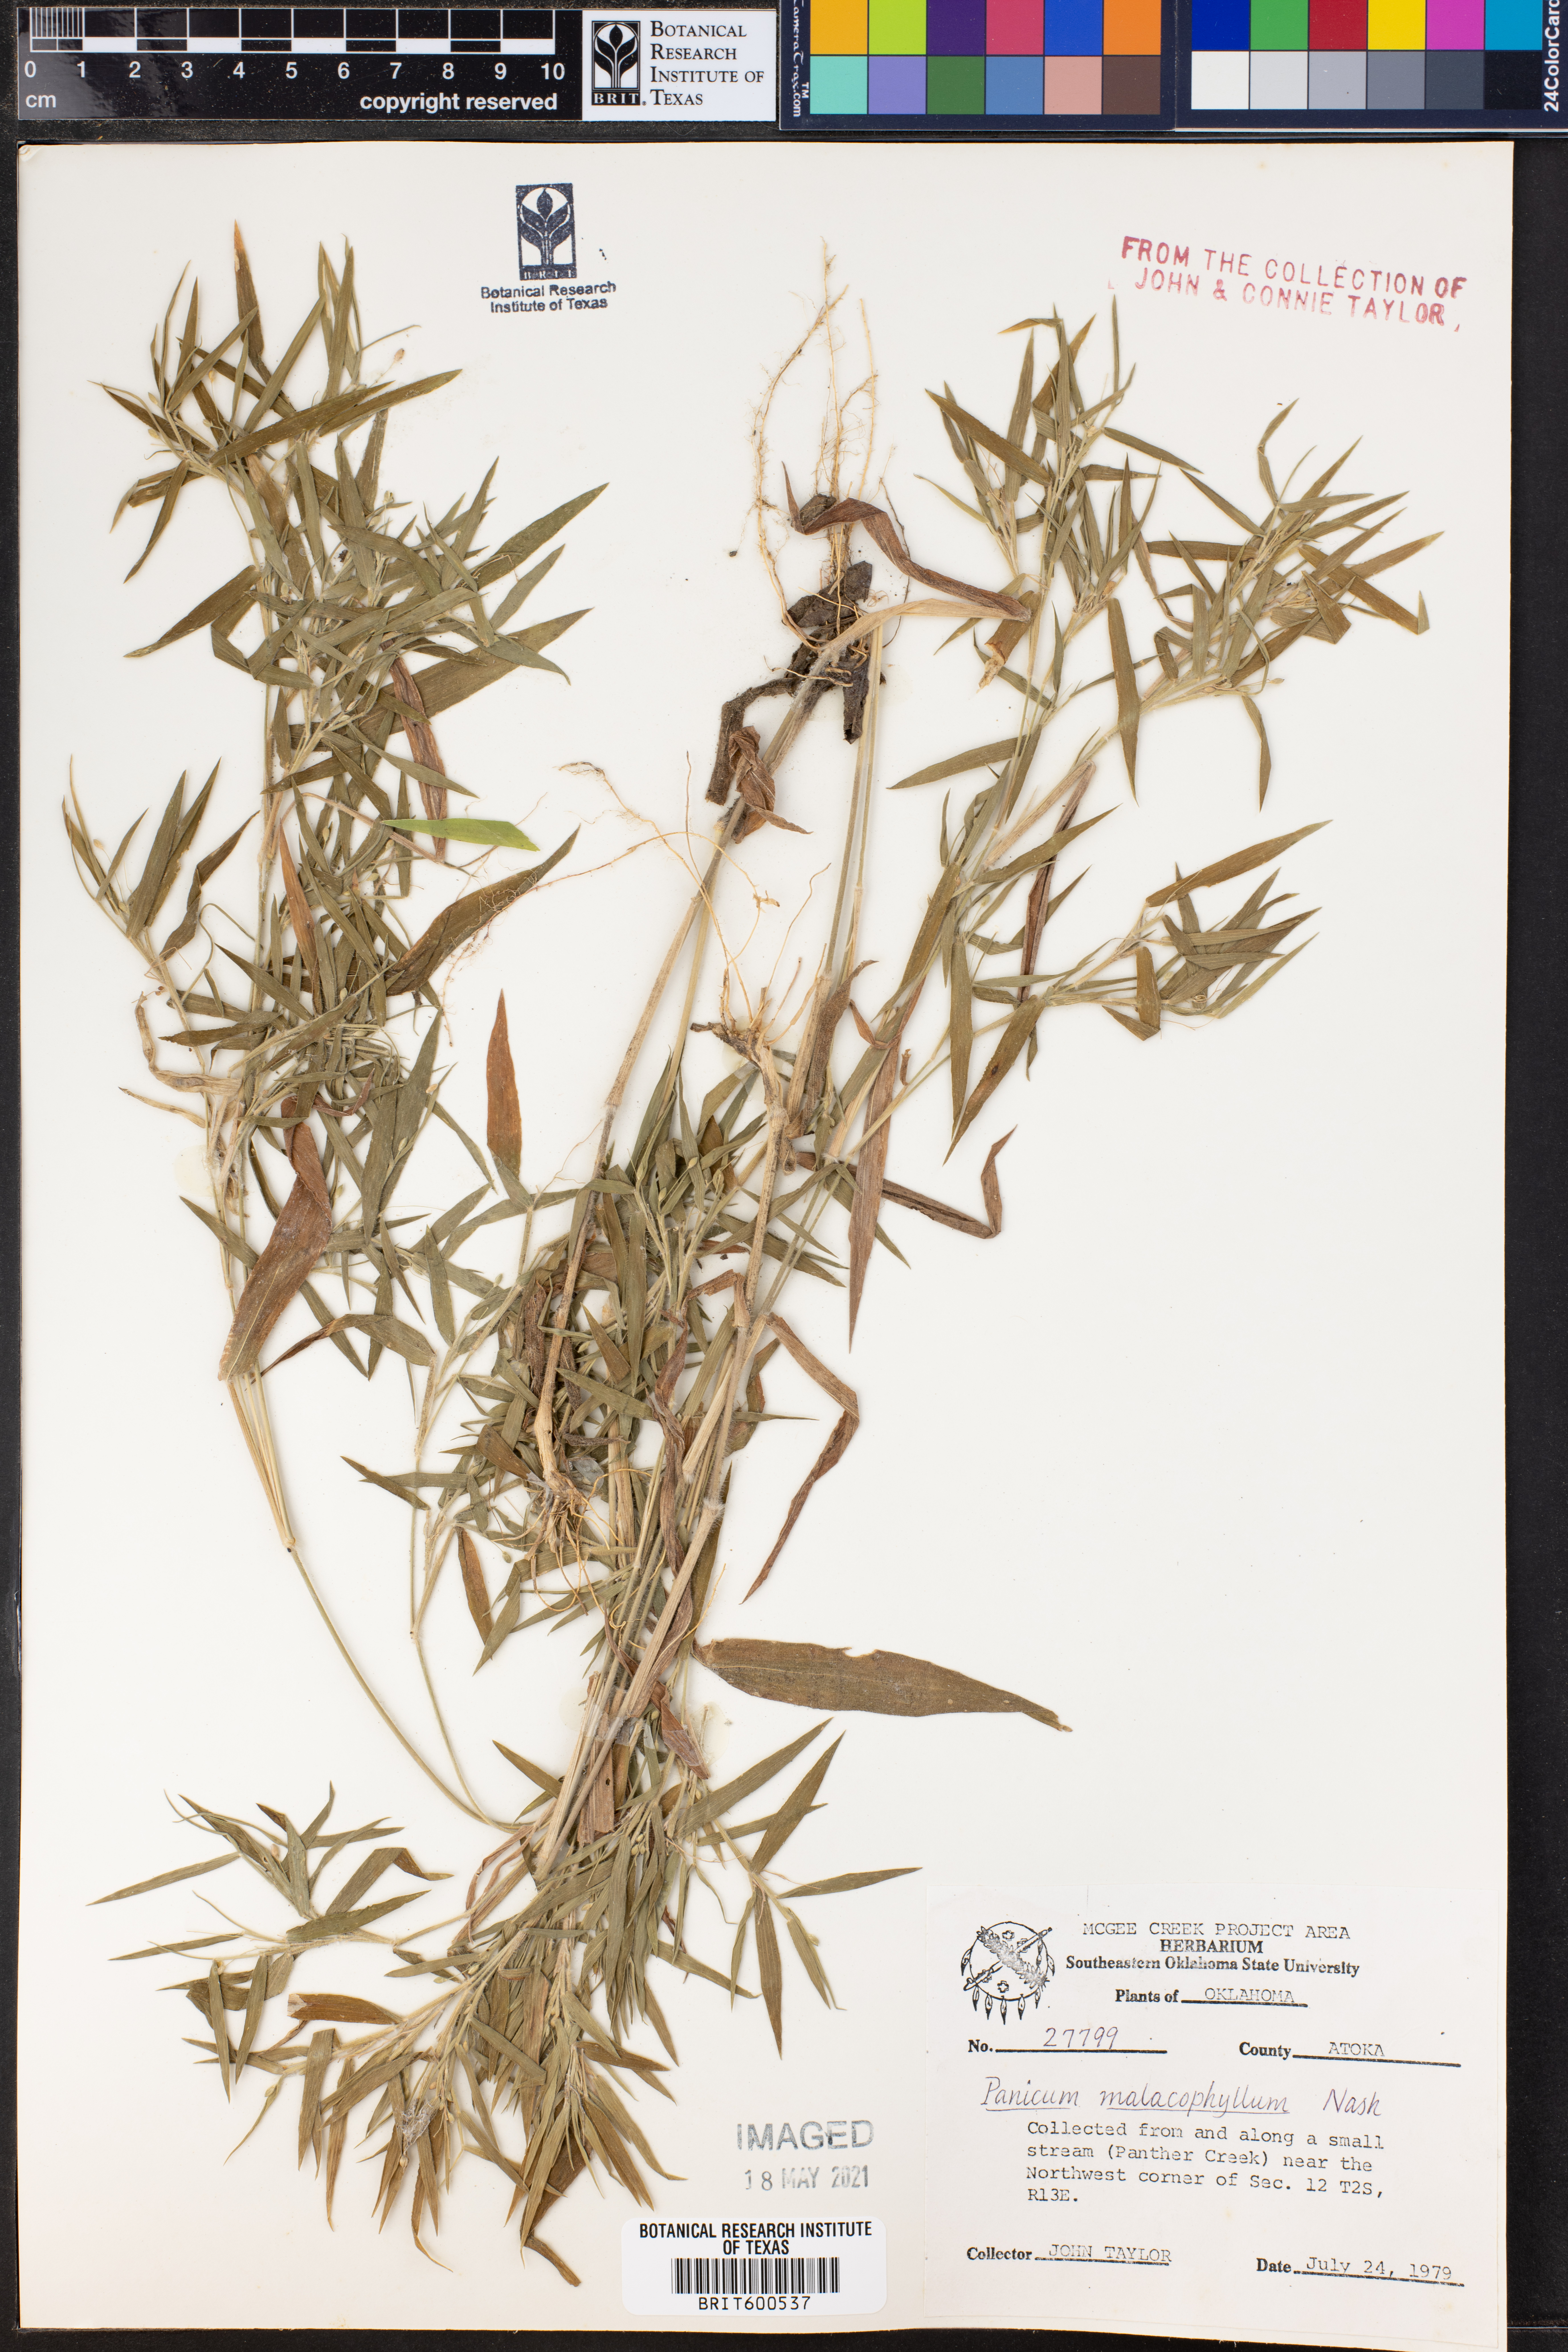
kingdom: Plantae
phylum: Tracheophyta
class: Liliopsida
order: Poales
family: Poaceae
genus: Dichanthelium
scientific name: Dichanthelium malacophyllum
